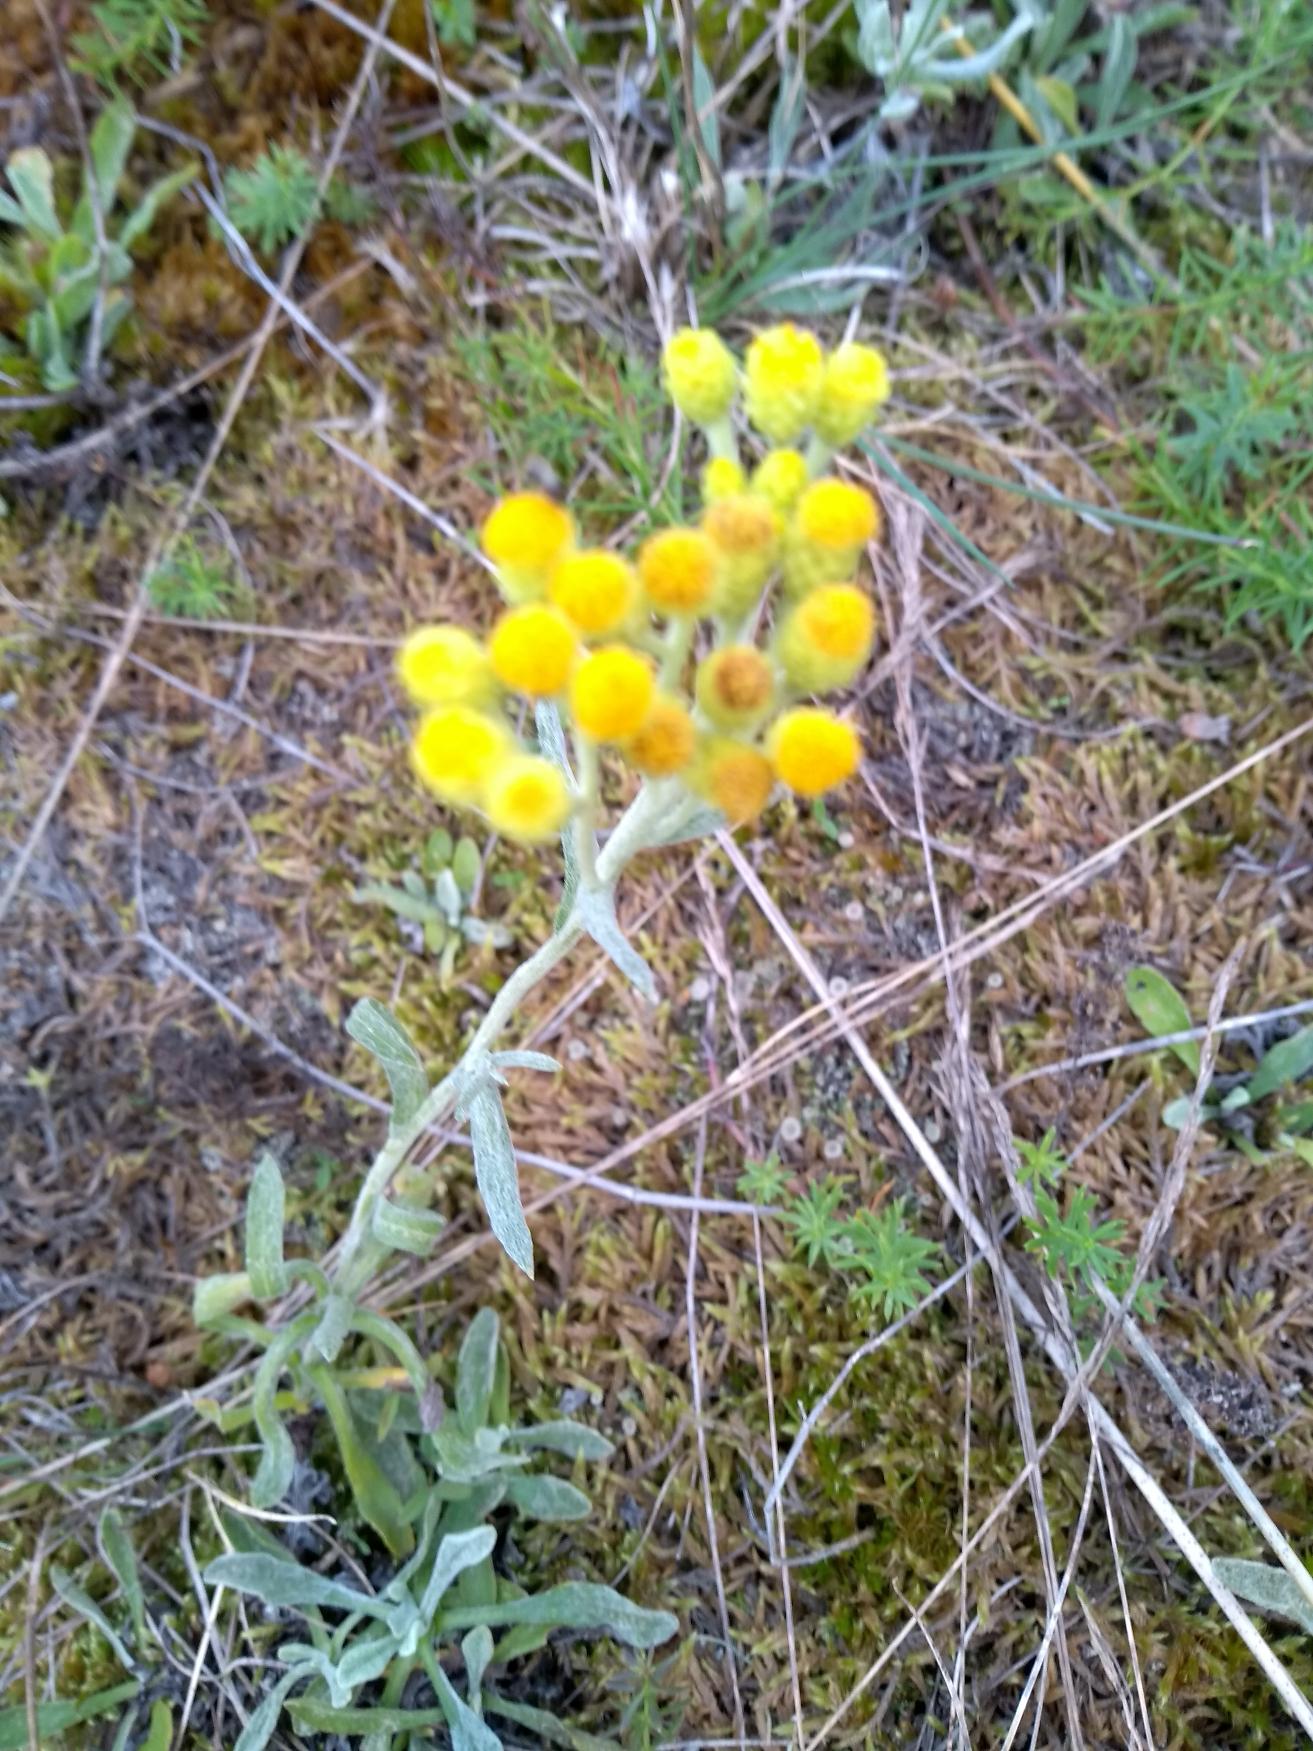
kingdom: Plantae
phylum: Tracheophyta
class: Magnoliopsida
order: Asterales
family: Asteraceae
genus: Helichrysum
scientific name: Helichrysum arenarium
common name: Gul evighedsblomst
